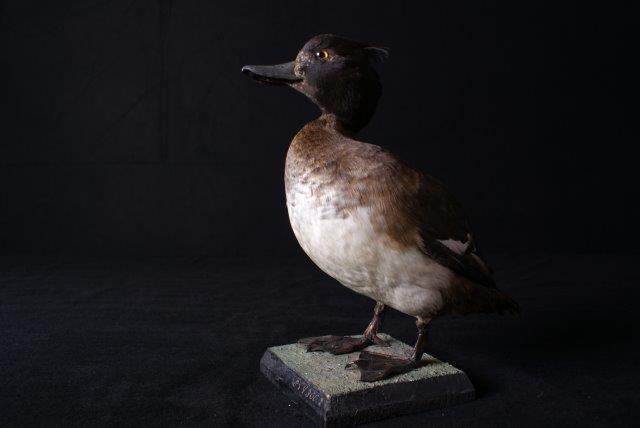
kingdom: Animalia
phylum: Chordata
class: Aves
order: Anseriformes
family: Anatidae
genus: Aythya
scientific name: Aythya fuligula
